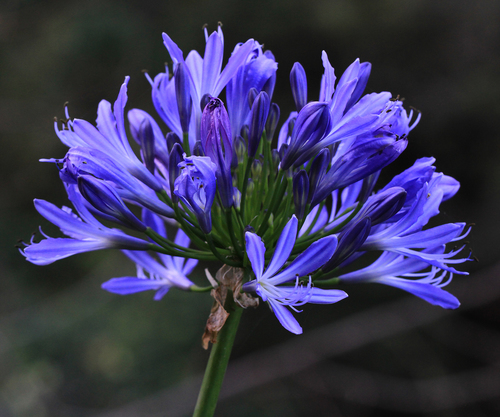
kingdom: Plantae
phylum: Tracheophyta
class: Liliopsida
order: Asparagales
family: Amaryllidaceae
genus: Agapanthus
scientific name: Agapanthus praecox
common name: African-lily
